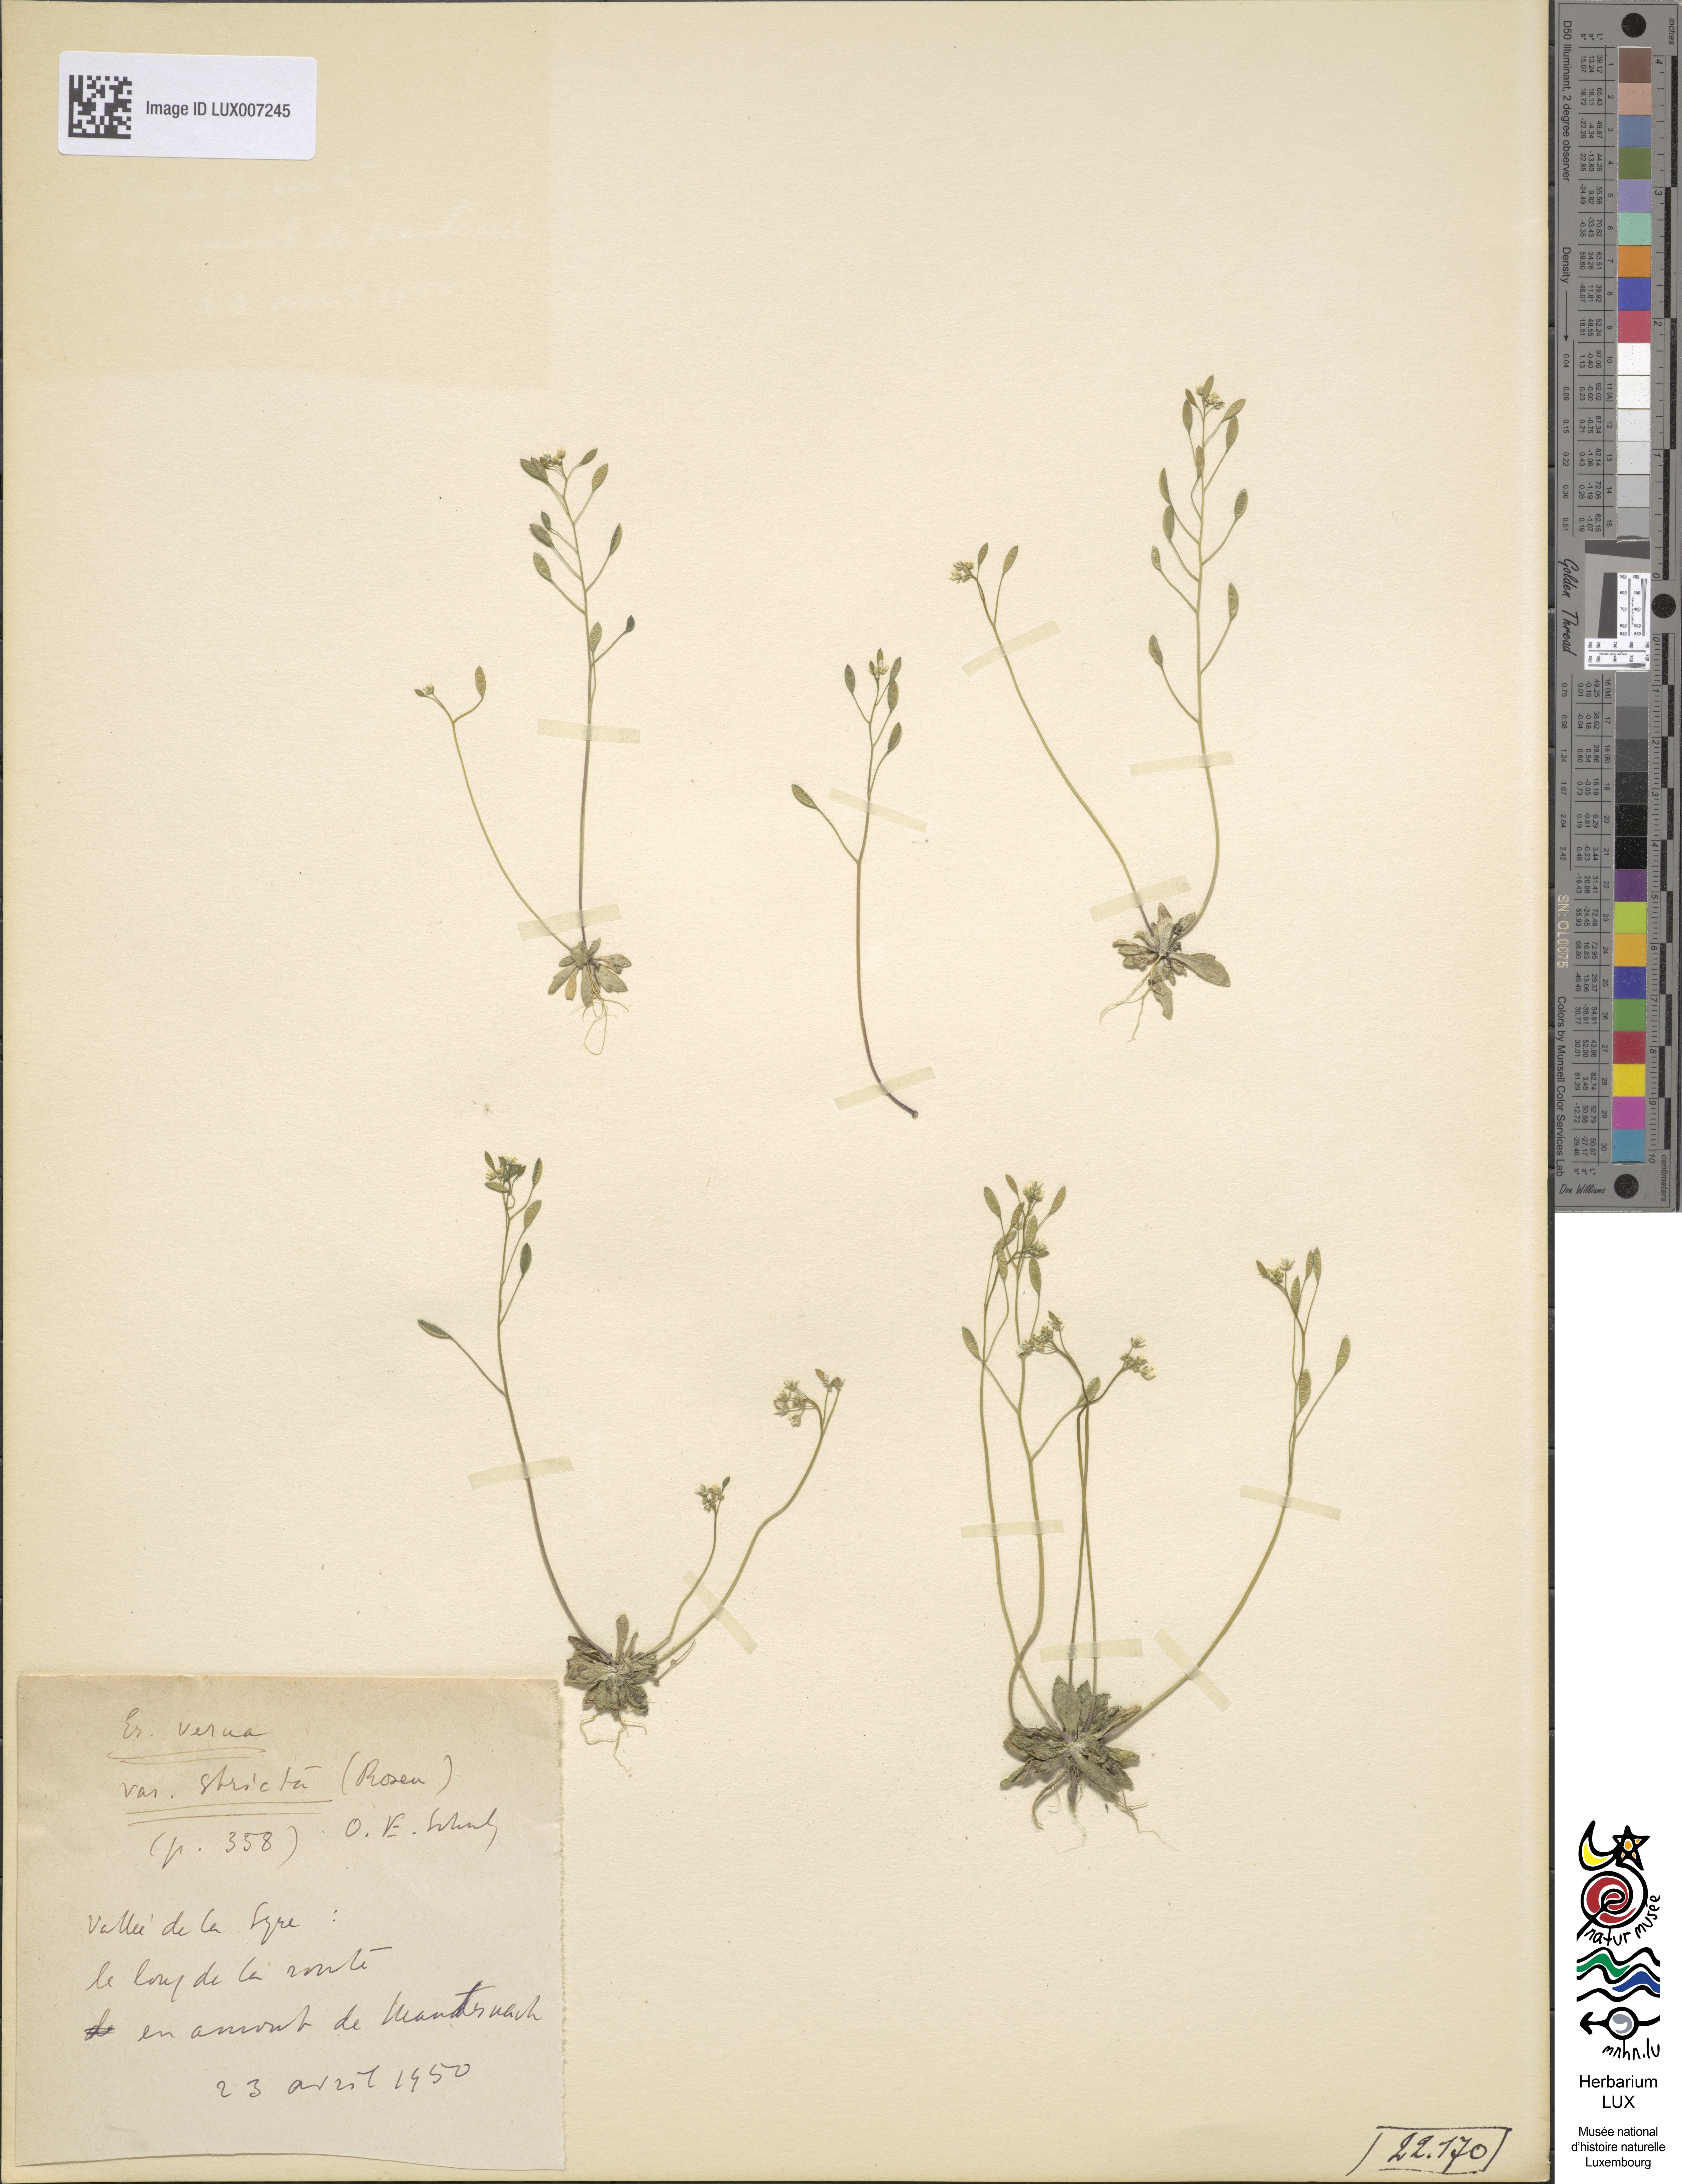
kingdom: Plantae
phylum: Tracheophyta
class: Magnoliopsida
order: Brassicales
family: Brassicaceae
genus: Draba
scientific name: Draba verna
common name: Spring draba
